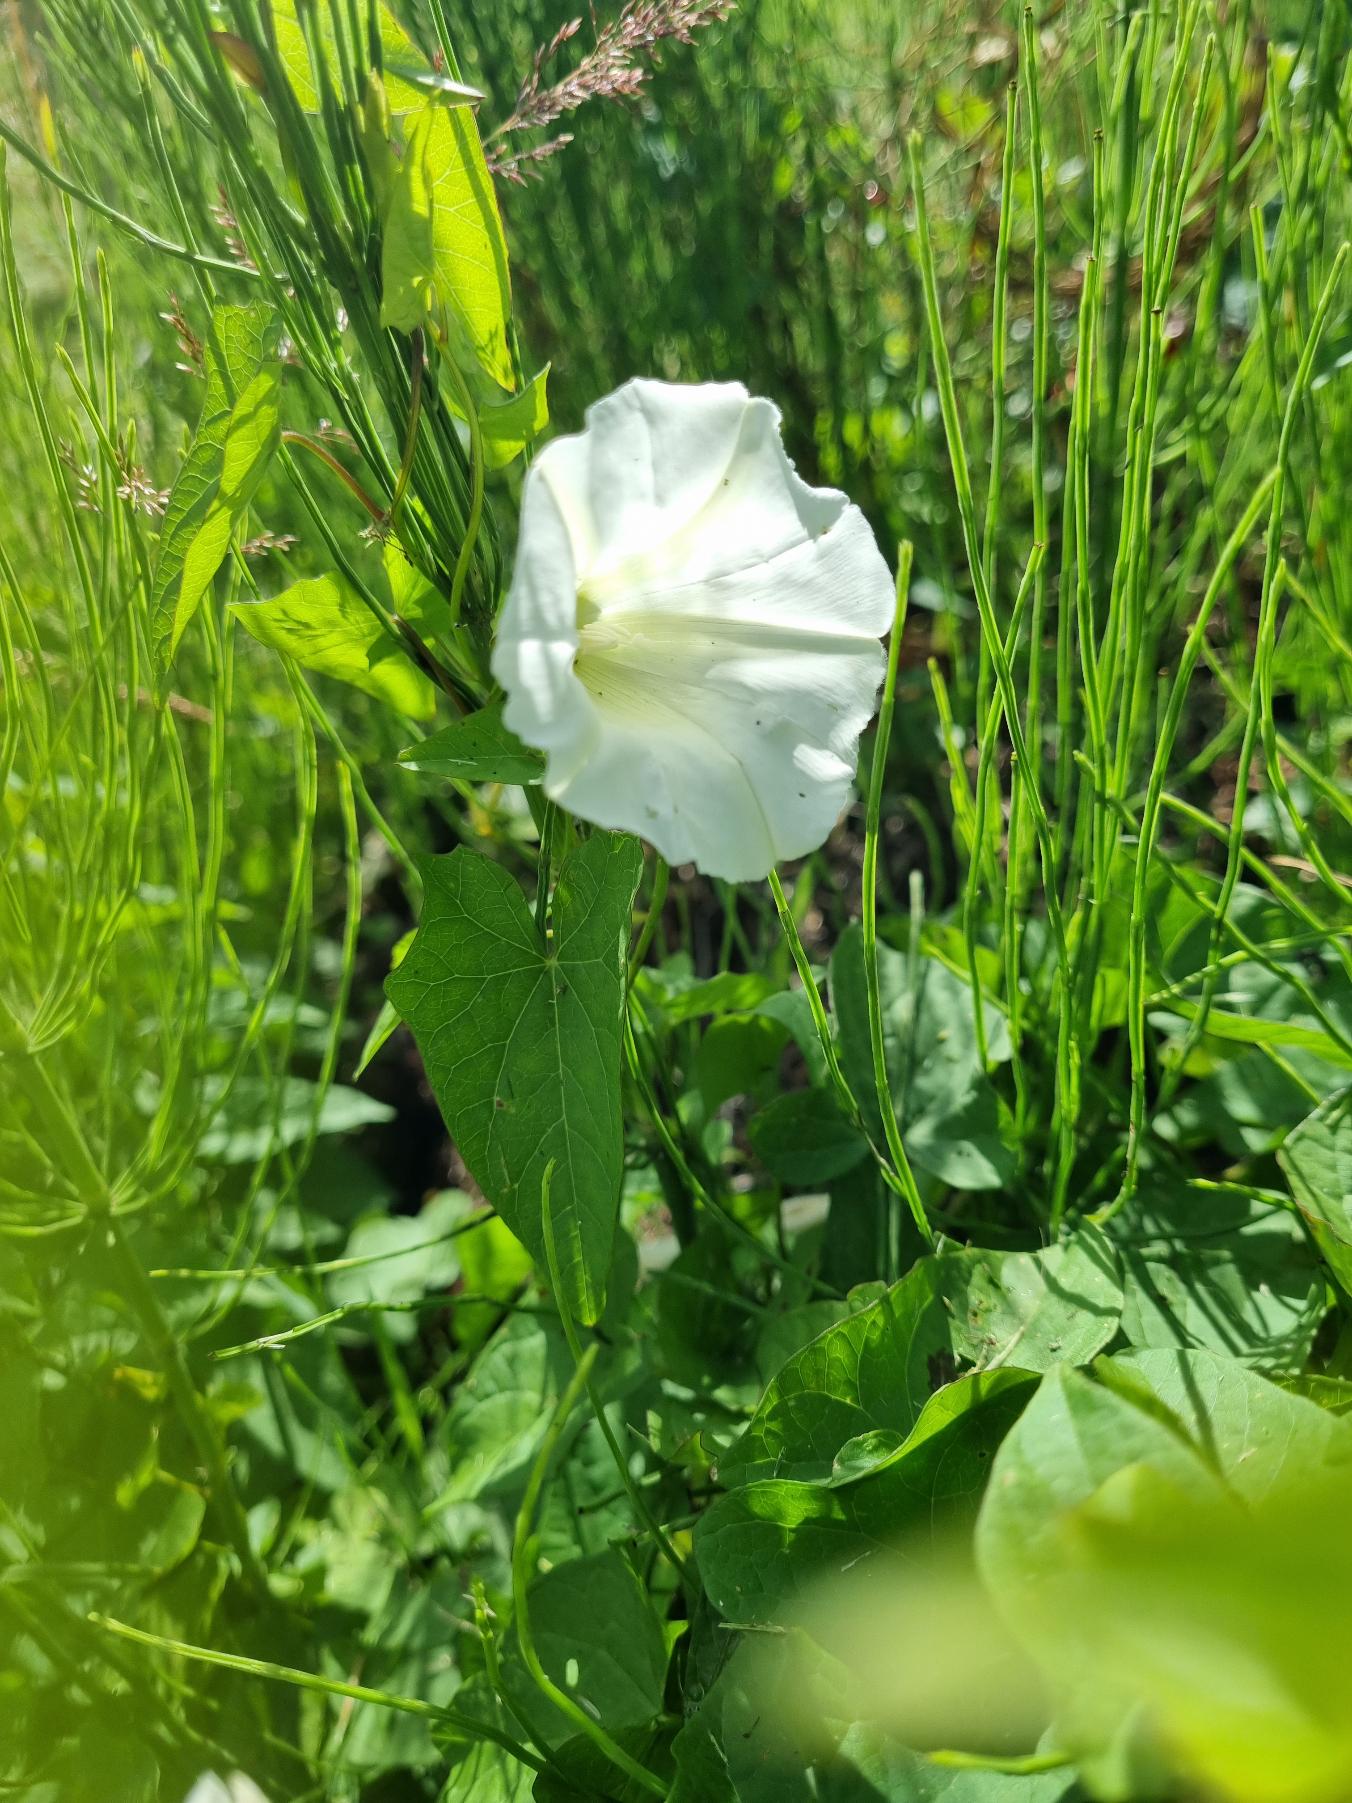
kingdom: Plantae
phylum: Tracheophyta
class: Magnoliopsida
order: Solanales
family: Convolvulaceae
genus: Calystegia
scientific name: Calystegia sepium
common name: Gærde-snerle
